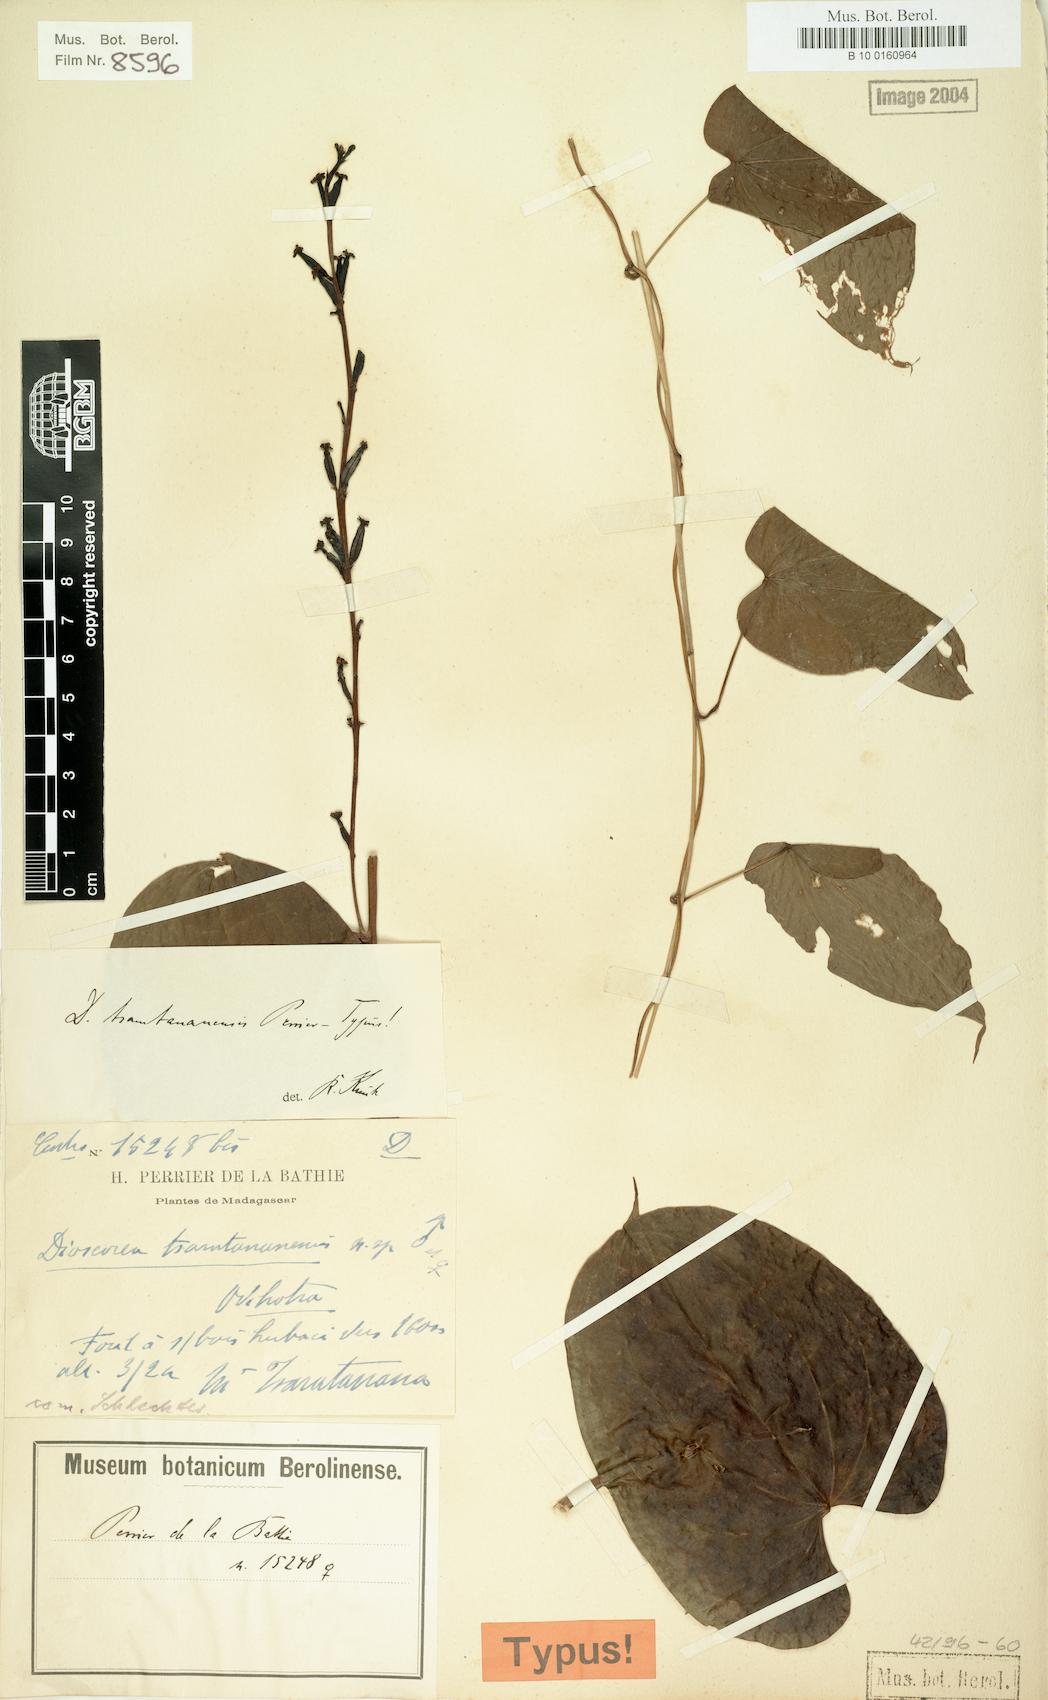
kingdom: Plantae
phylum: Tracheophyta
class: Liliopsida
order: Dioscoreales
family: Dioscoreaceae
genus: Dioscorea
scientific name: Dioscorea tsaratananensis
